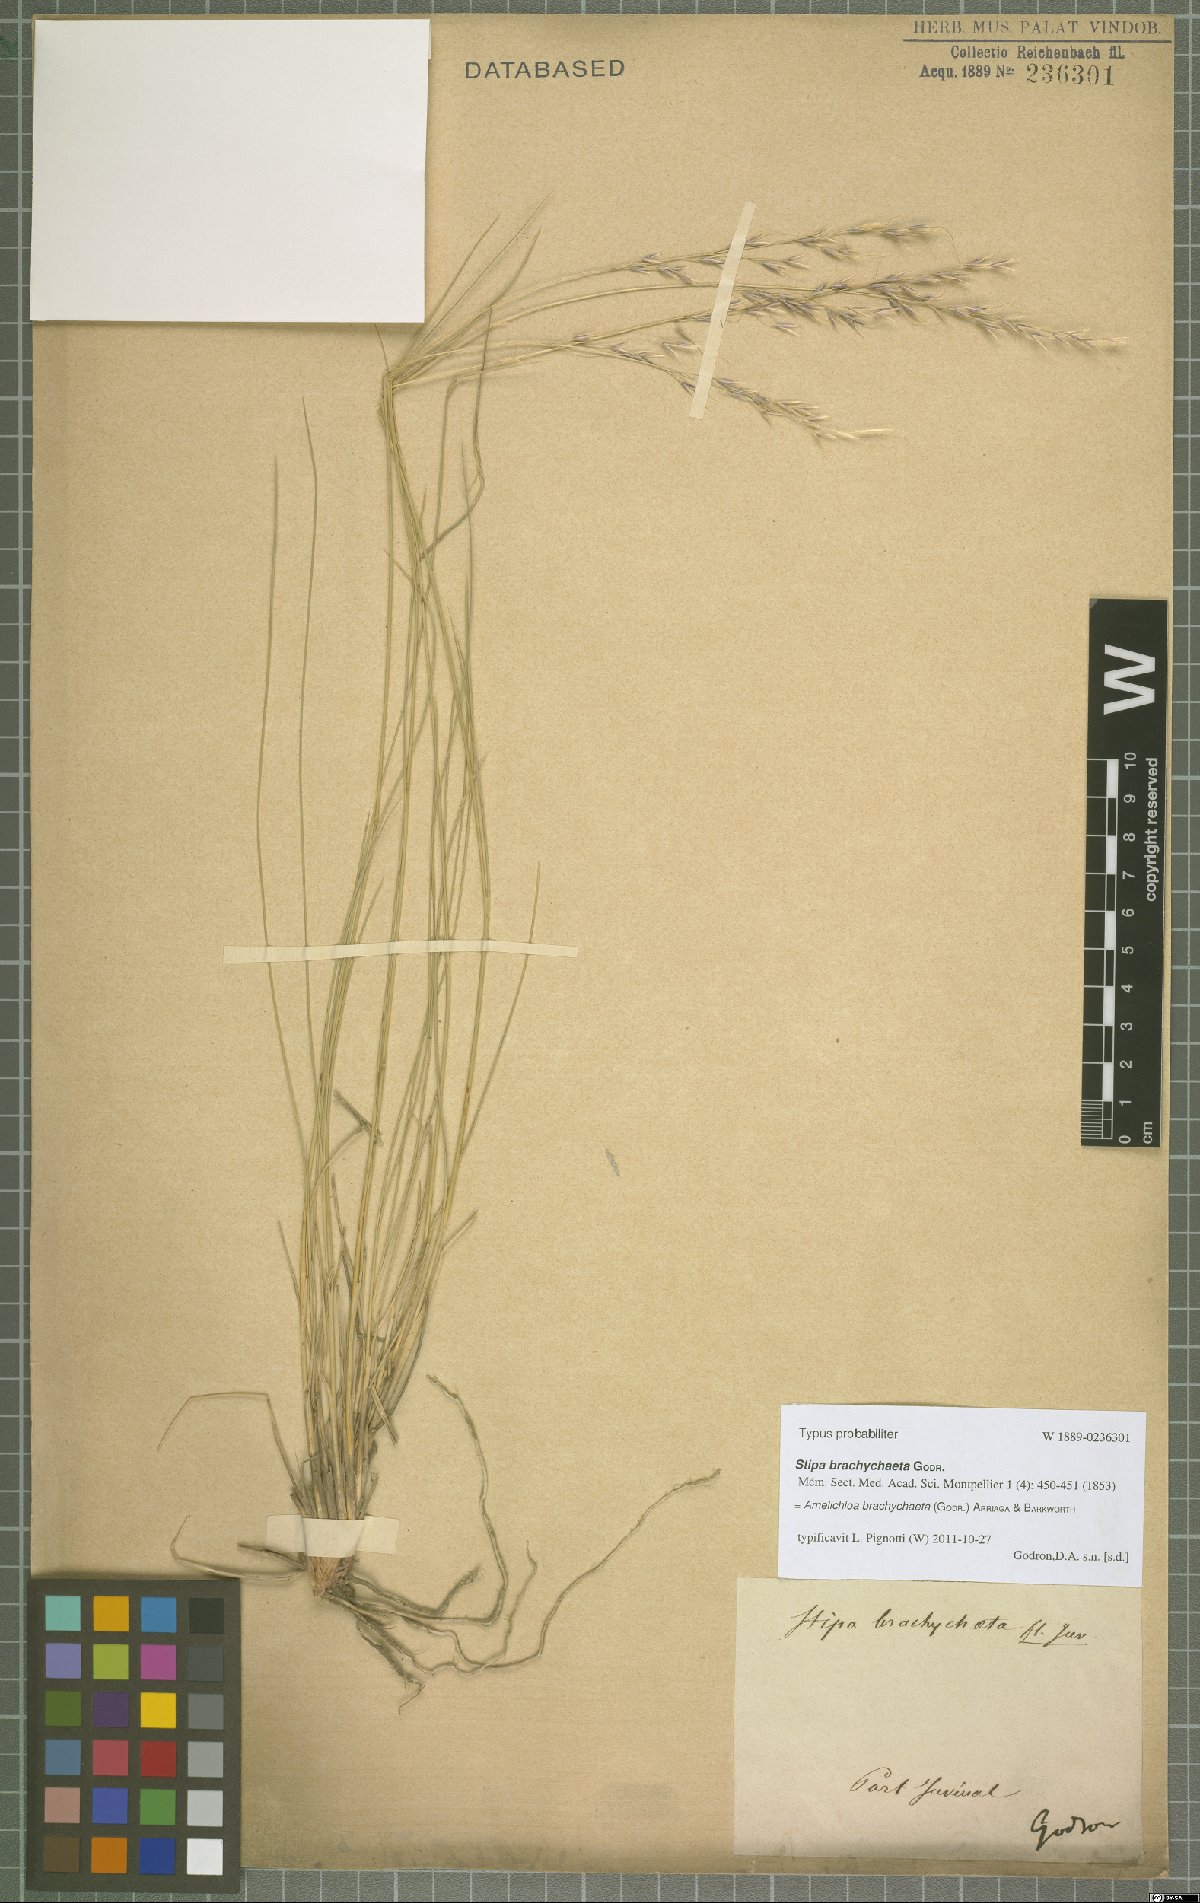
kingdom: Plantae
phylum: Tracheophyta
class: Liliopsida
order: Poales
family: Poaceae
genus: Amelichloa
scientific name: Amelichloa brachychaeta
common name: Shortbristled needlegrass
